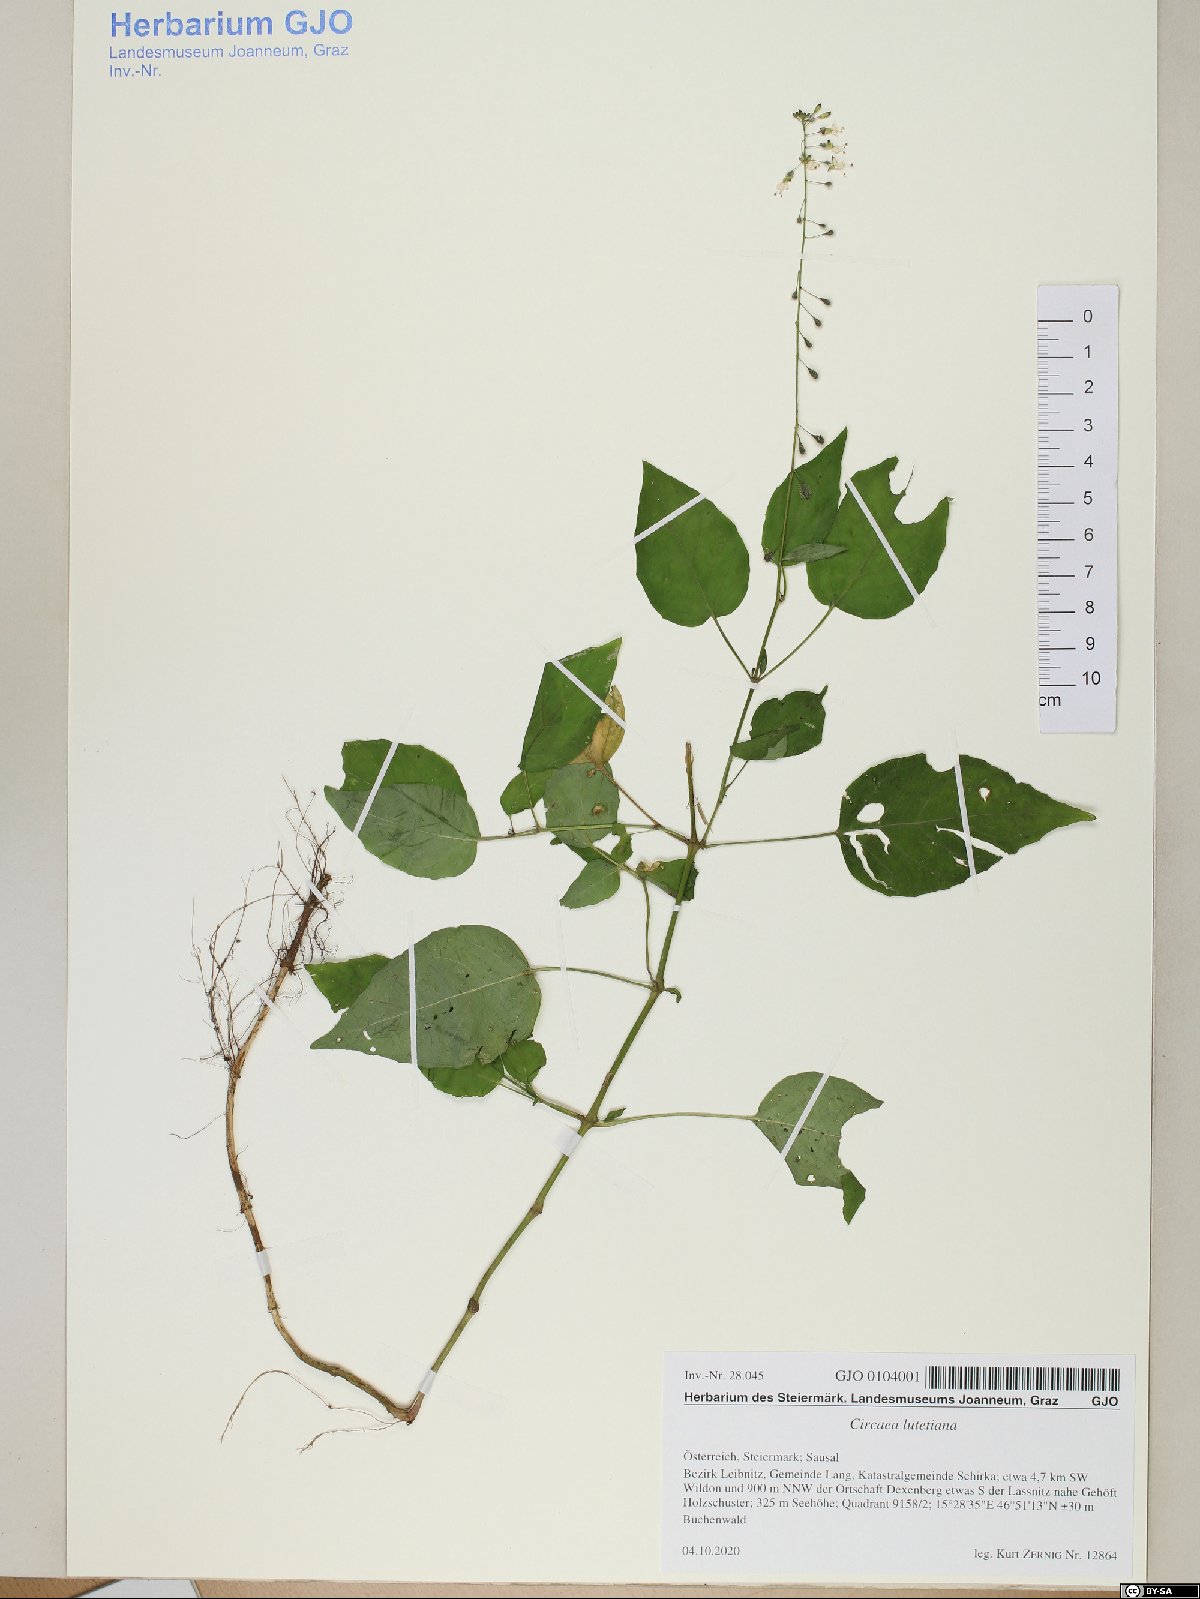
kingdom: Plantae
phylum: Tracheophyta
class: Magnoliopsida
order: Myrtales
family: Onagraceae
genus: Circaea
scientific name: Circaea lutetiana
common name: Enchanter's-nightshade
